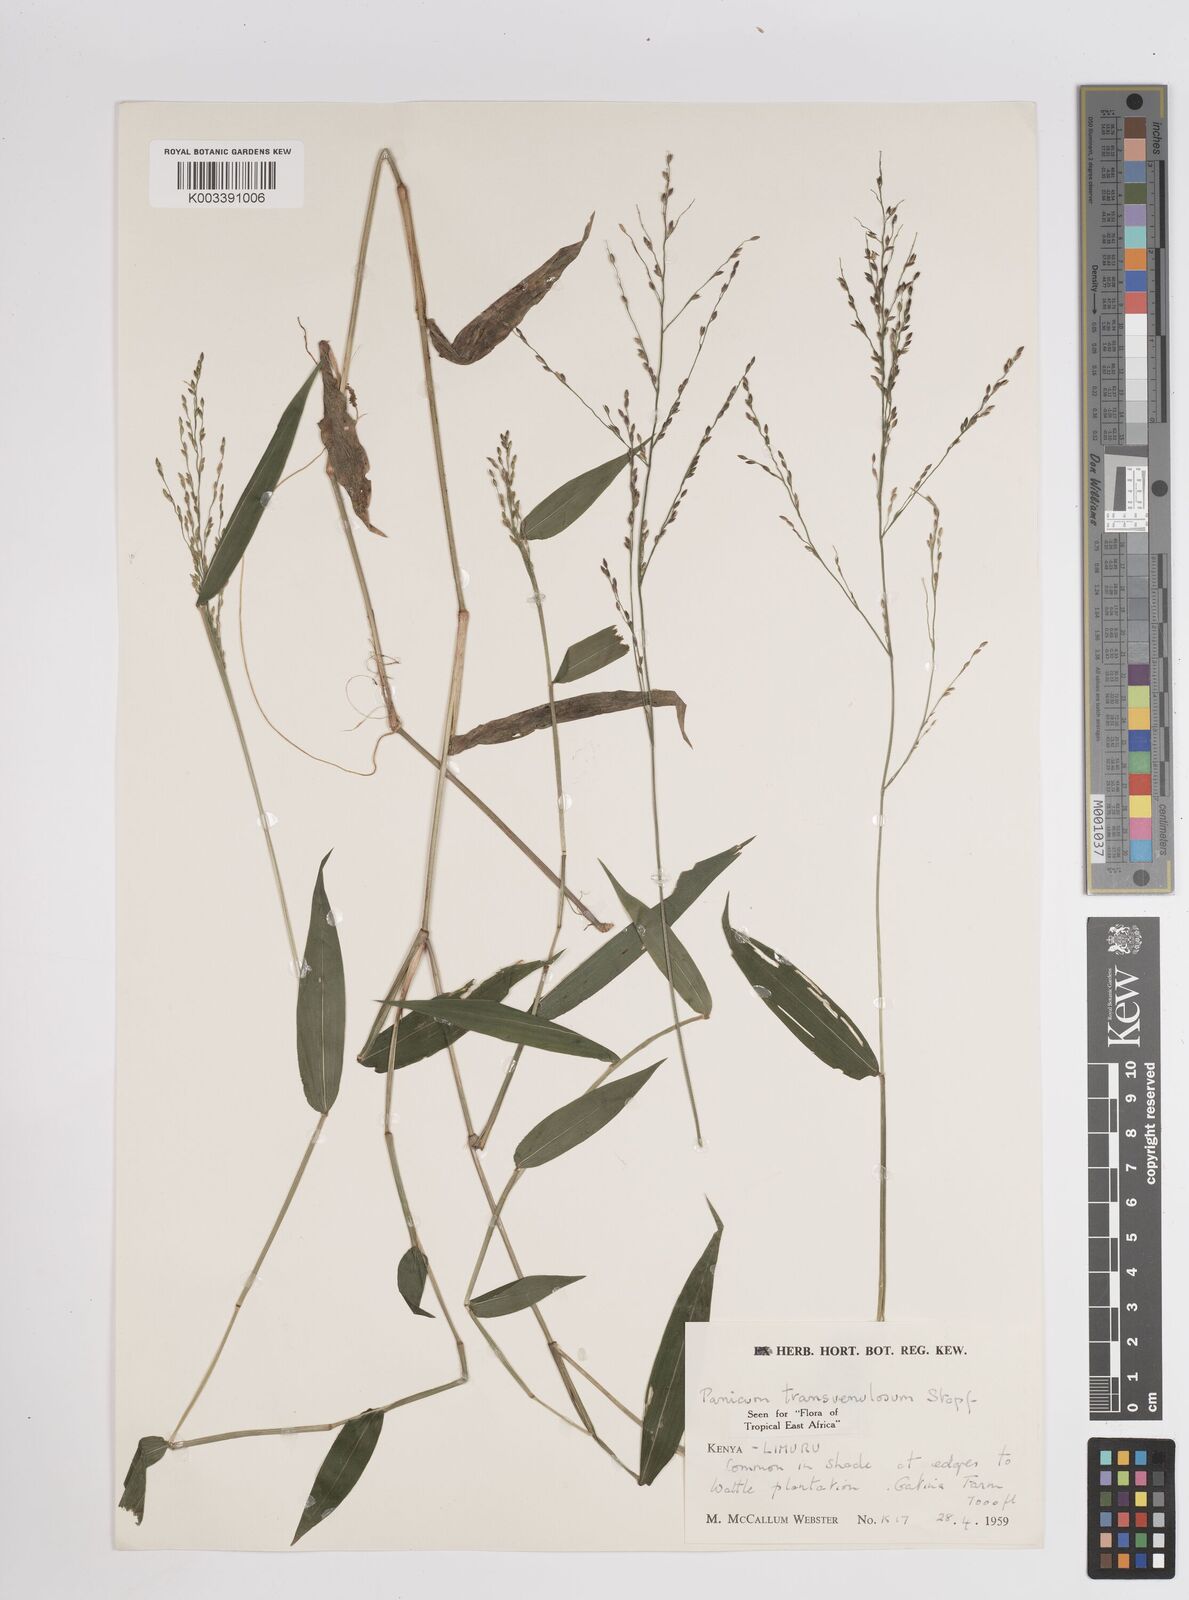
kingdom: Plantae
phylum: Tracheophyta
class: Liliopsida
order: Poales
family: Poaceae
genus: Panicum
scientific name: Panicum monticola
